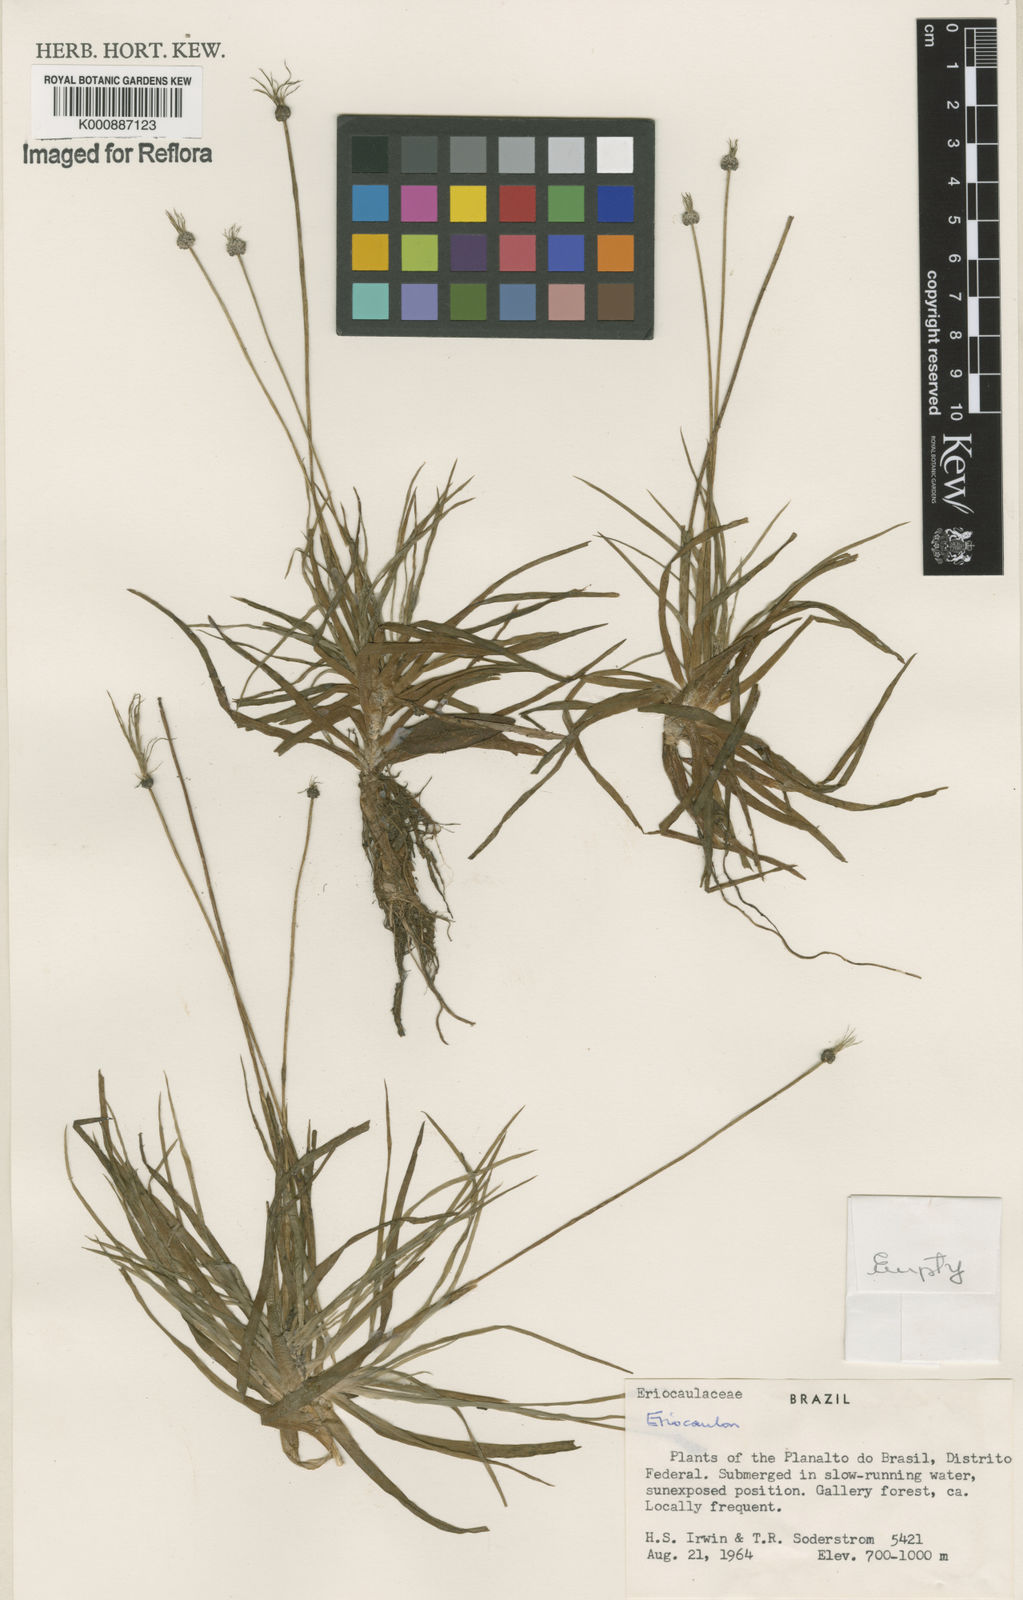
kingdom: Plantae
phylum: Tracheophyta
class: Liliopsida
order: Poales
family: Eriocaulaceae
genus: Eriocaulon
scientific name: Eriocaulon
